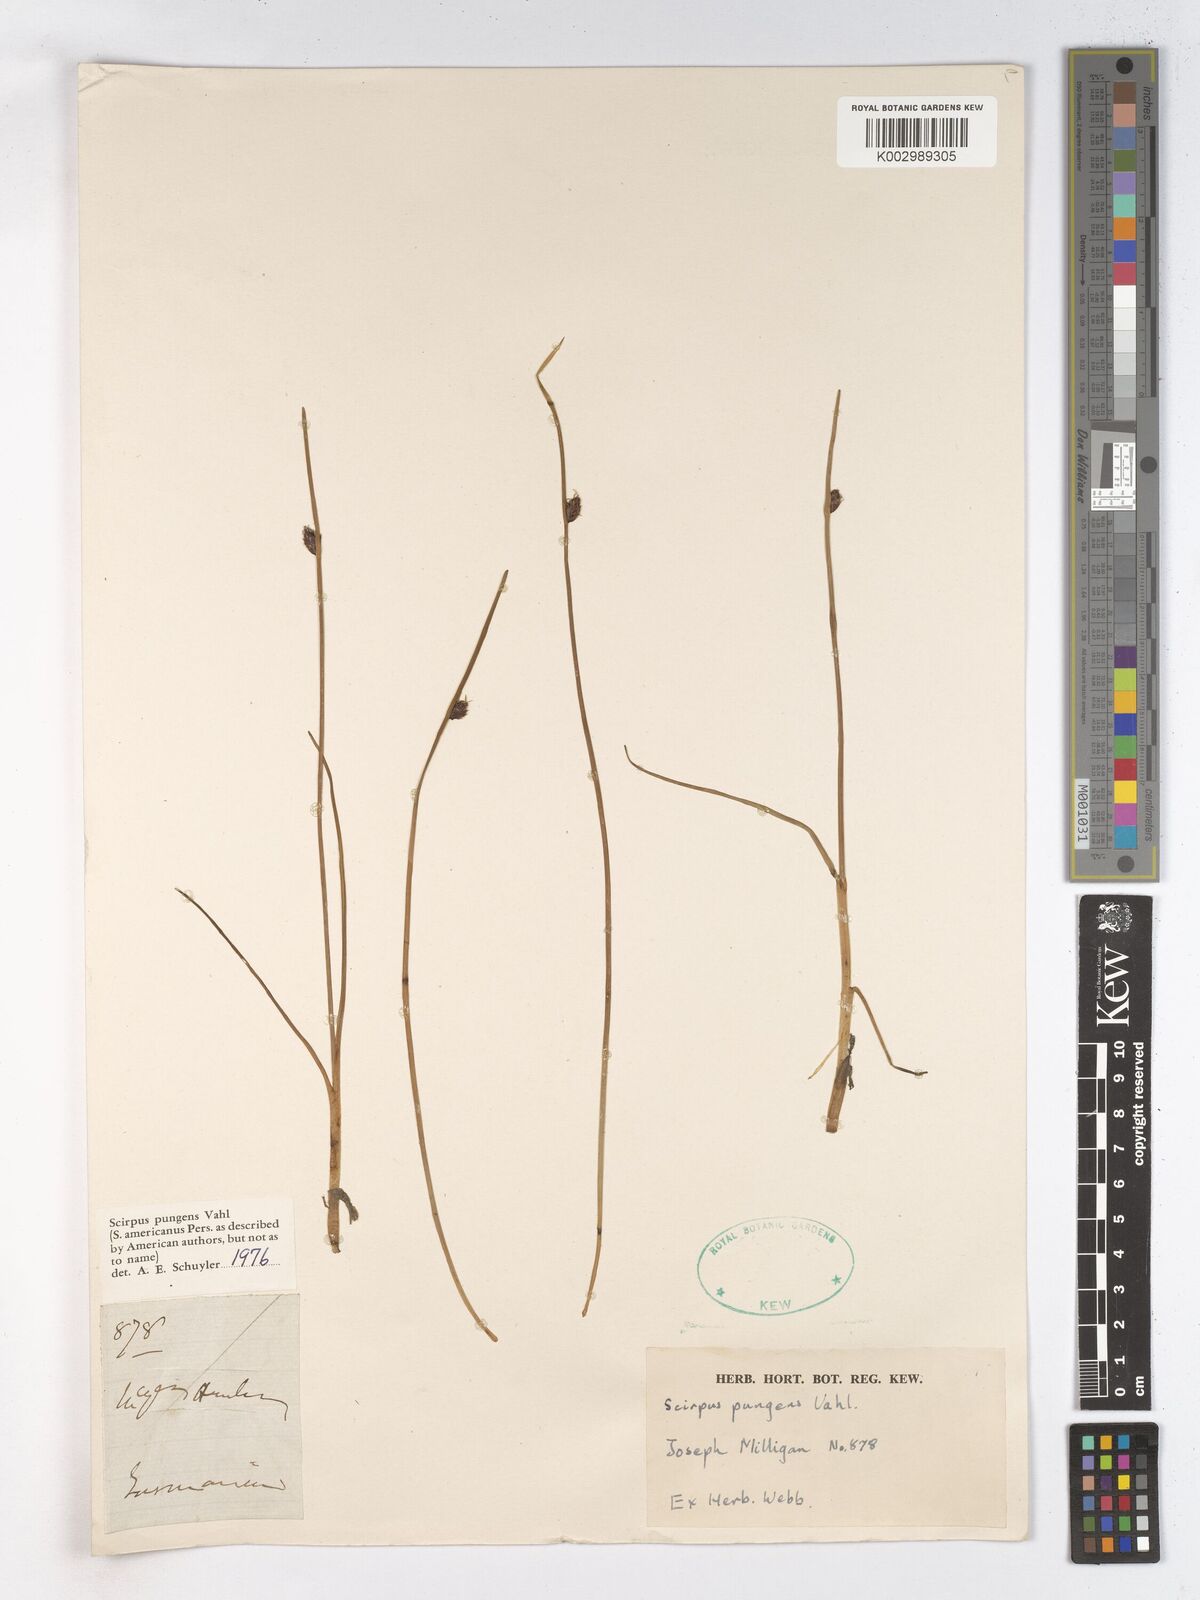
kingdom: Plantae
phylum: Tracheophyta
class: Liliopsida
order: Poales
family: Cyperaceae
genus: Schoenoplectus
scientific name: Schoenoplectus pungens
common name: Sharp club-rush
